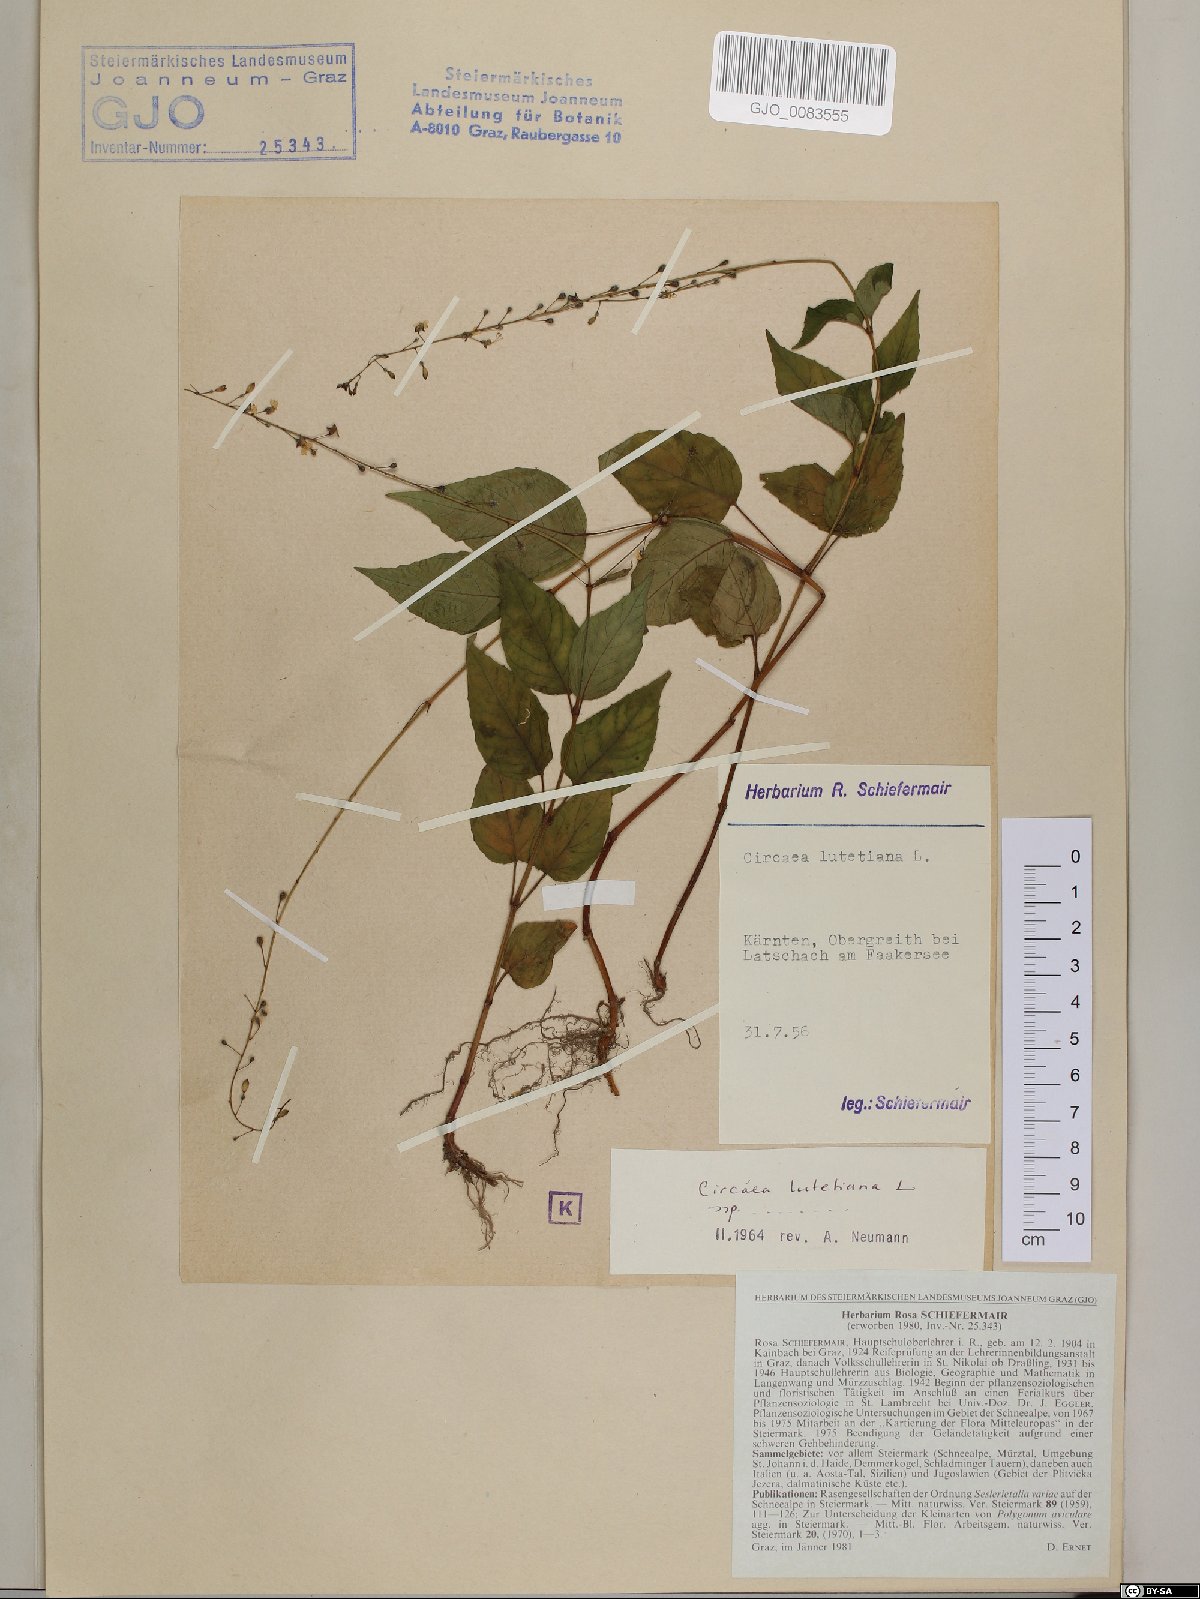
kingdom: Plantae
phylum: Tracheophyta
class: Magnoliopsida
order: Myrtales
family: Onagraceae
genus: Circaea
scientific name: Circaea lutetiana
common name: Enchanter's-nightshade
